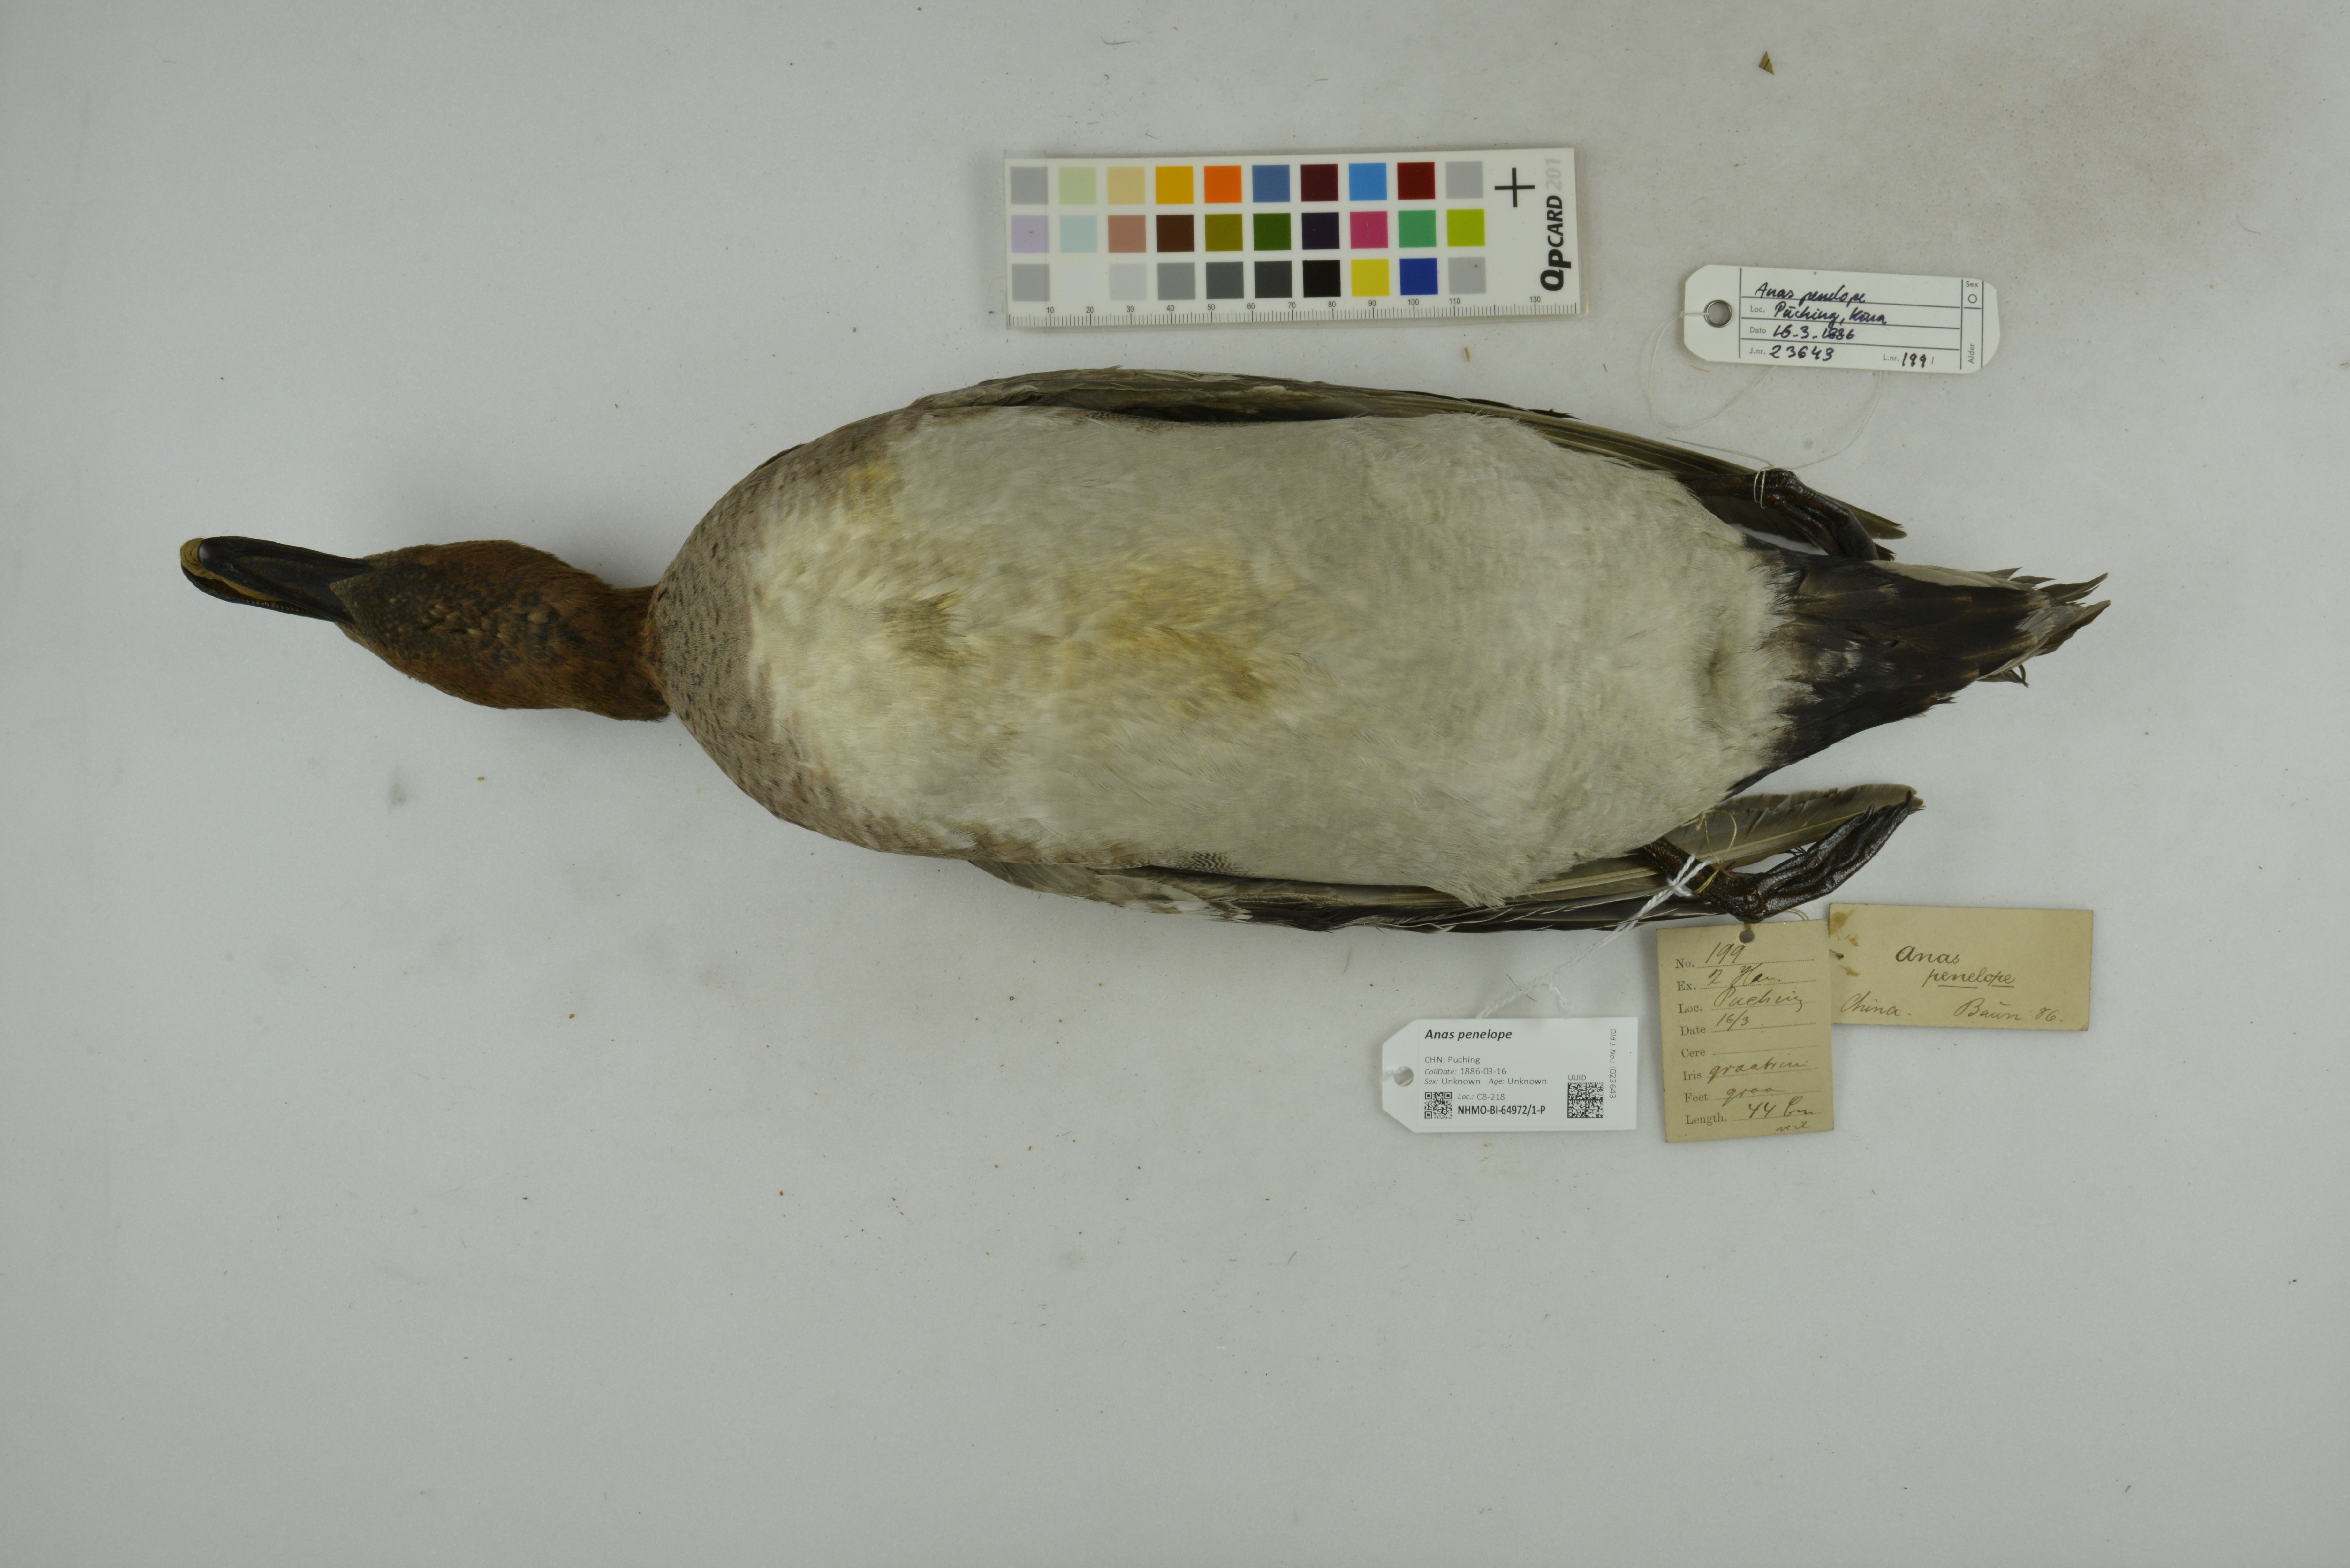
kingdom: Animalia
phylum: Chordata
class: Aves
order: Anseriformes
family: Anatidae
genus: Mareca
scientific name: Mareca penelope
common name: Eurasian wigeon
